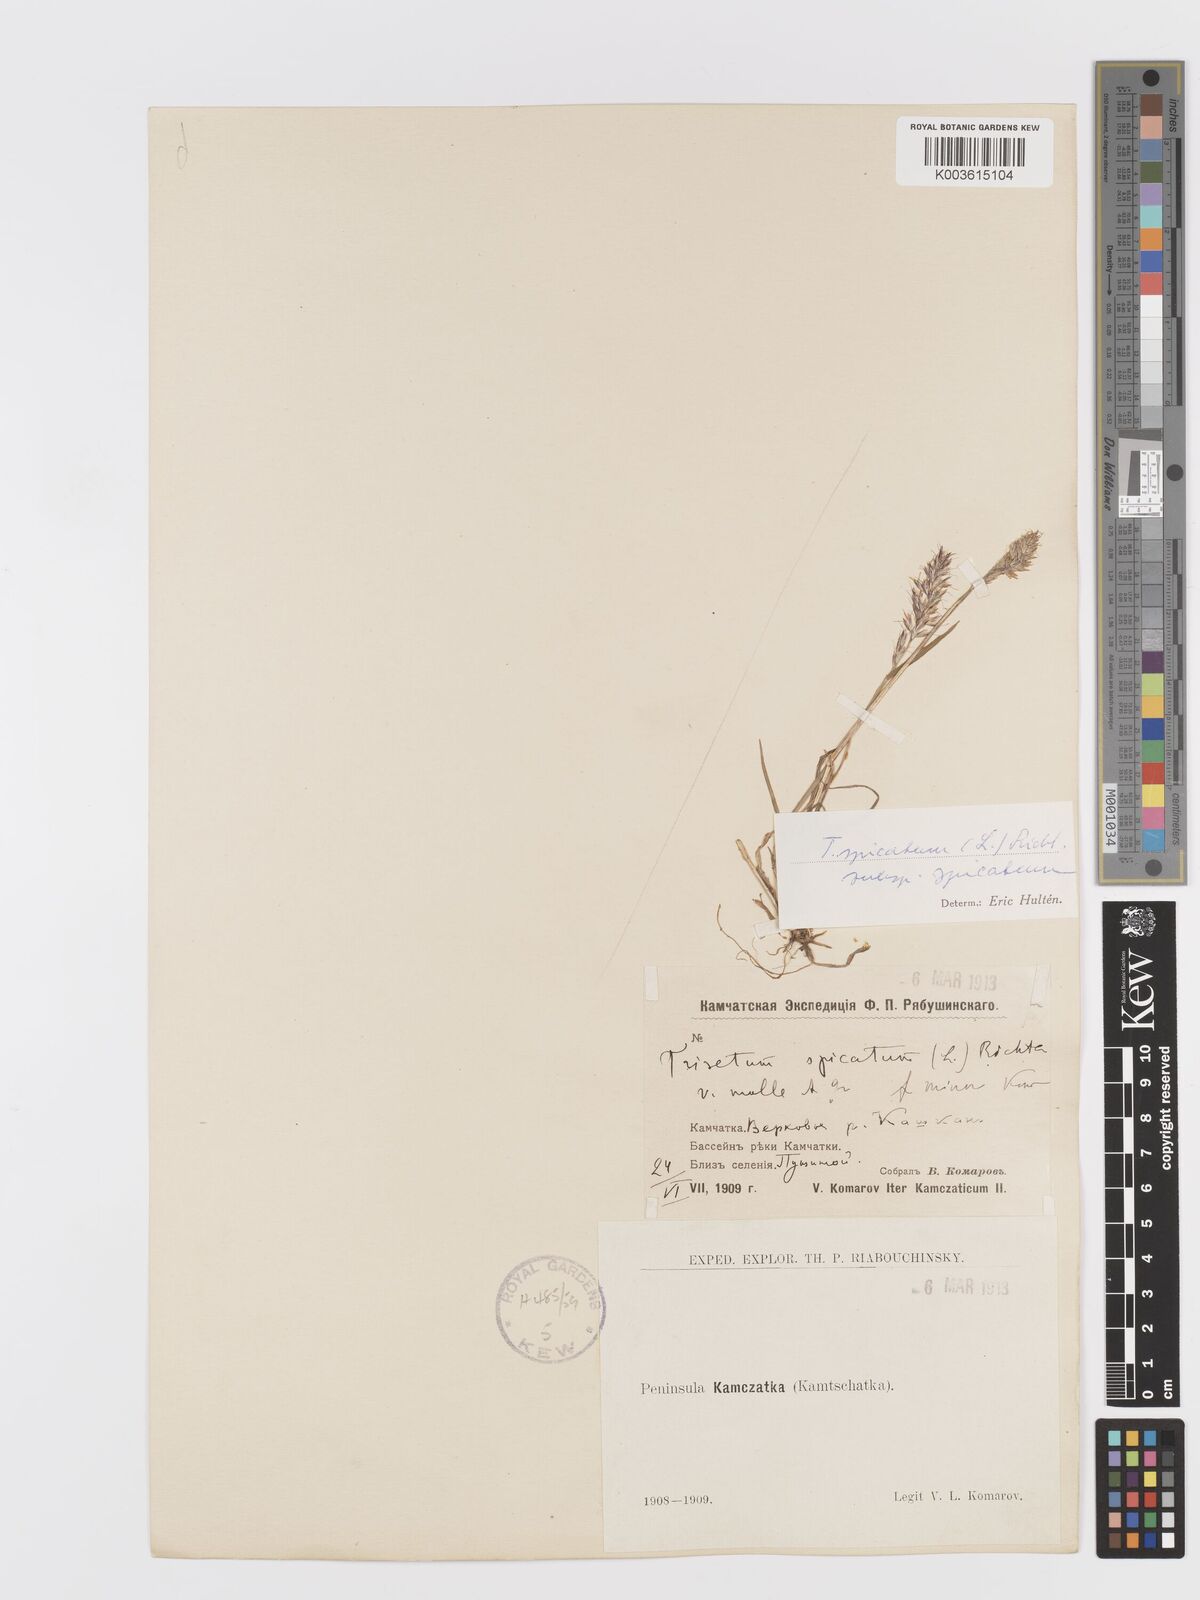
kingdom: Plantae
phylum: Tracheophyta
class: Liliopsida
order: Poales
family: Poaceae
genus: Koeleria
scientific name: Koeleria spicata
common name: Mountain trisetum
